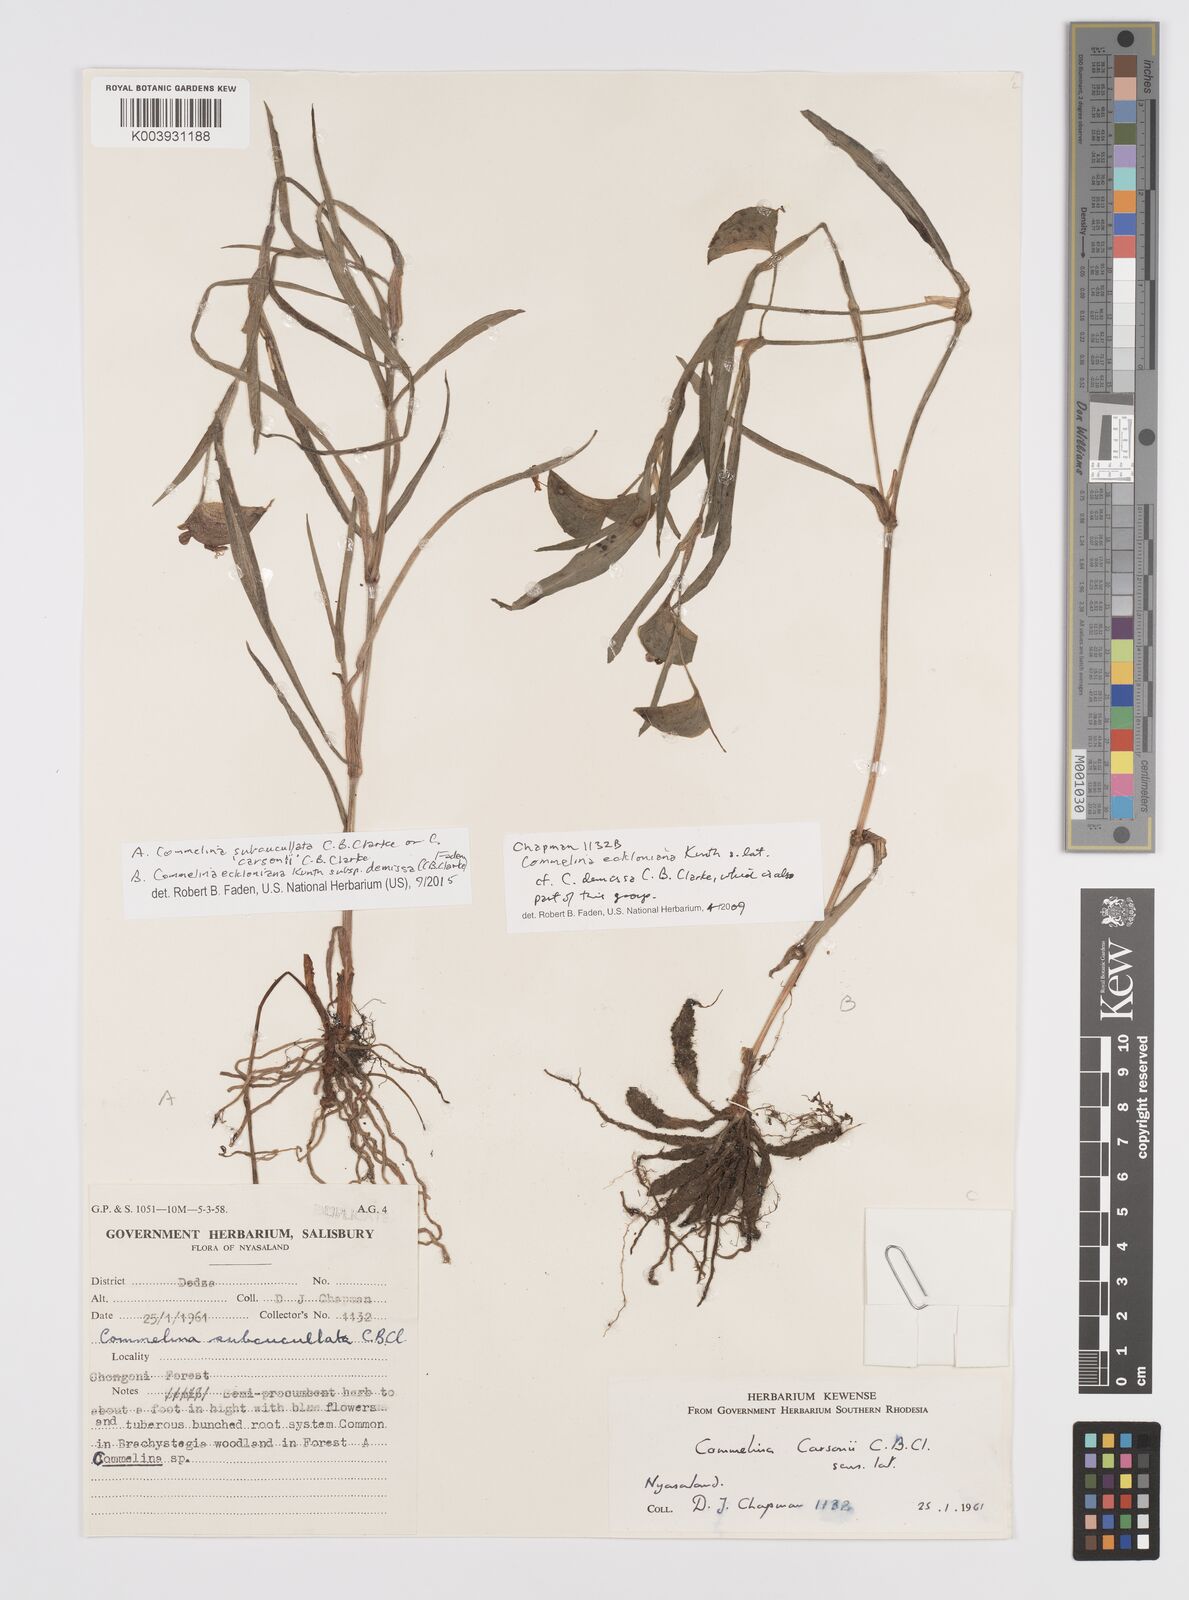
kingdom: Plantae
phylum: Tracheophyta
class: Liliopsida
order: Commelinales
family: Commelinaceae
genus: Commelina
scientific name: Commelina eckloniana
